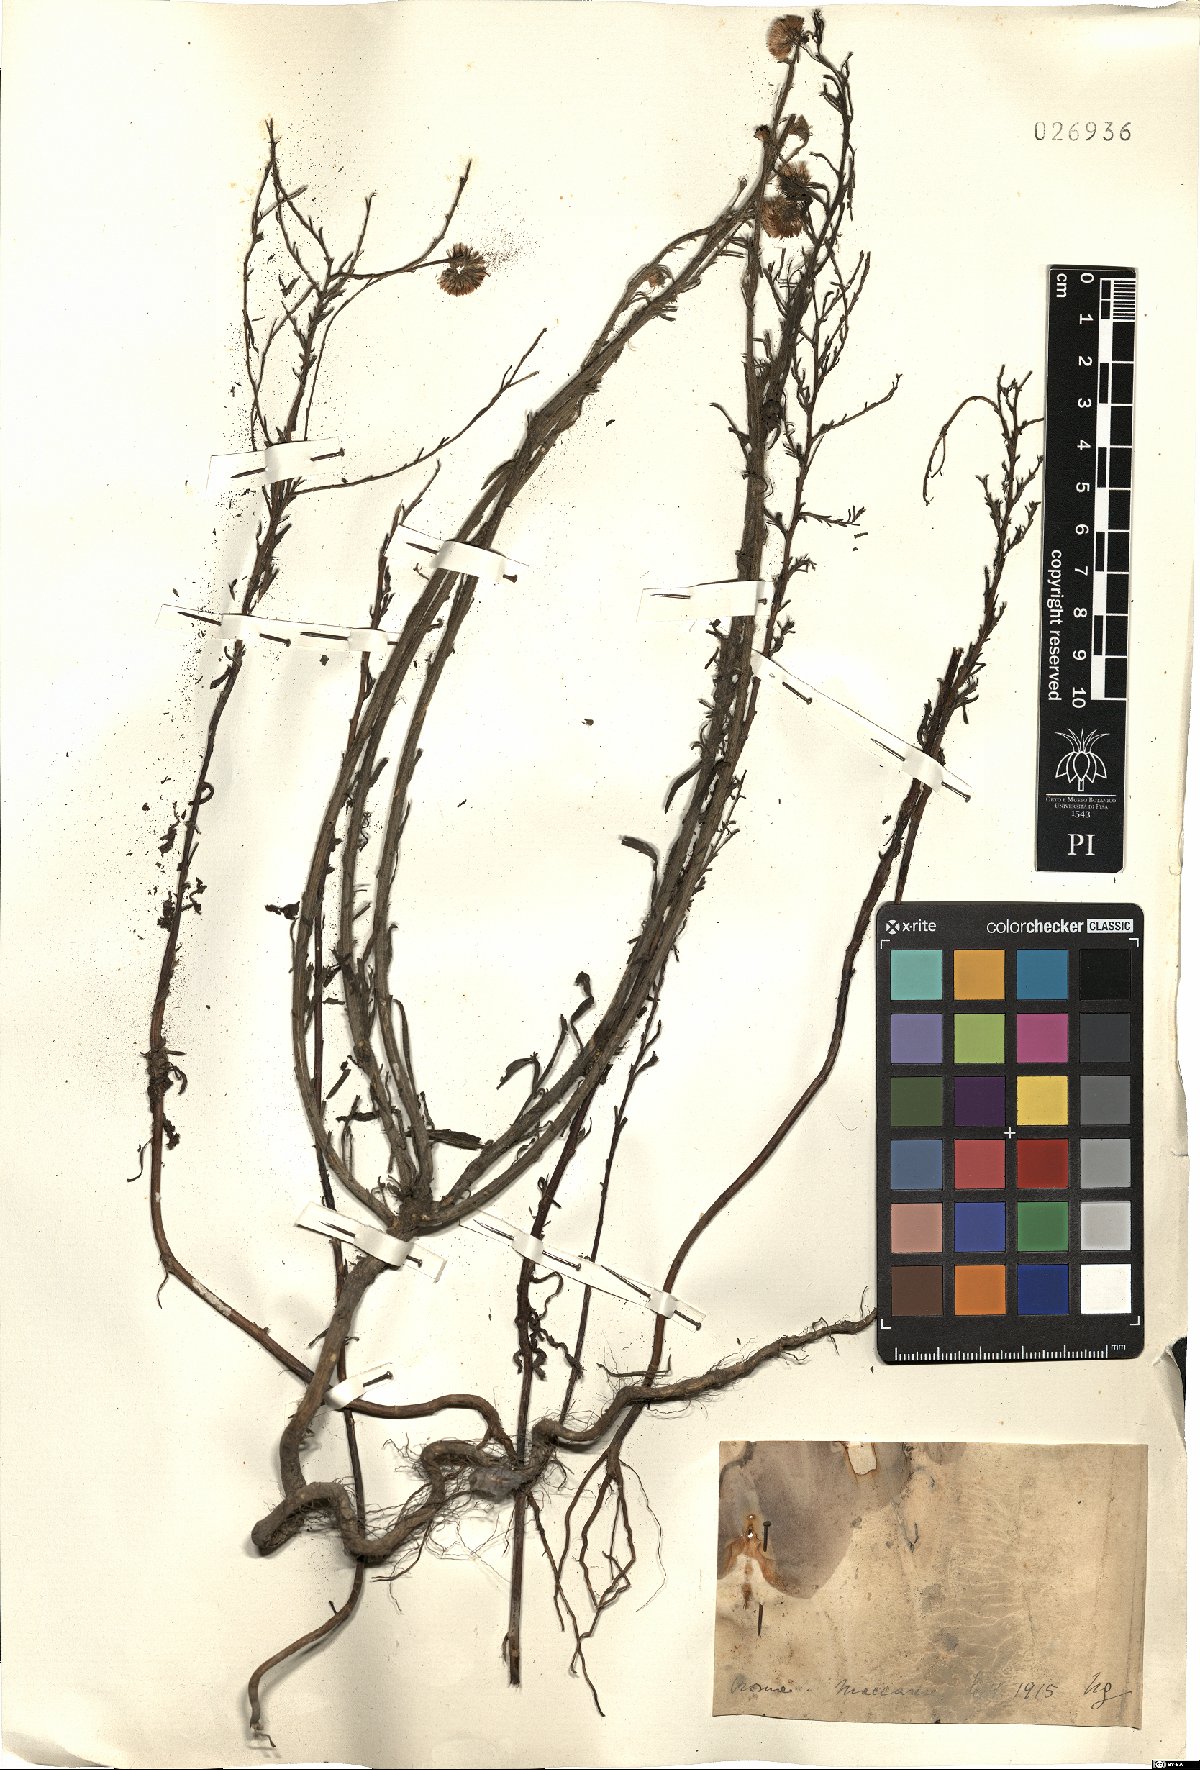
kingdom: Plantae
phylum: Tracheophyta
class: Magnoliopsida
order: Asterales
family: Asteraceae
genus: Erigeron
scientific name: Erigeron
